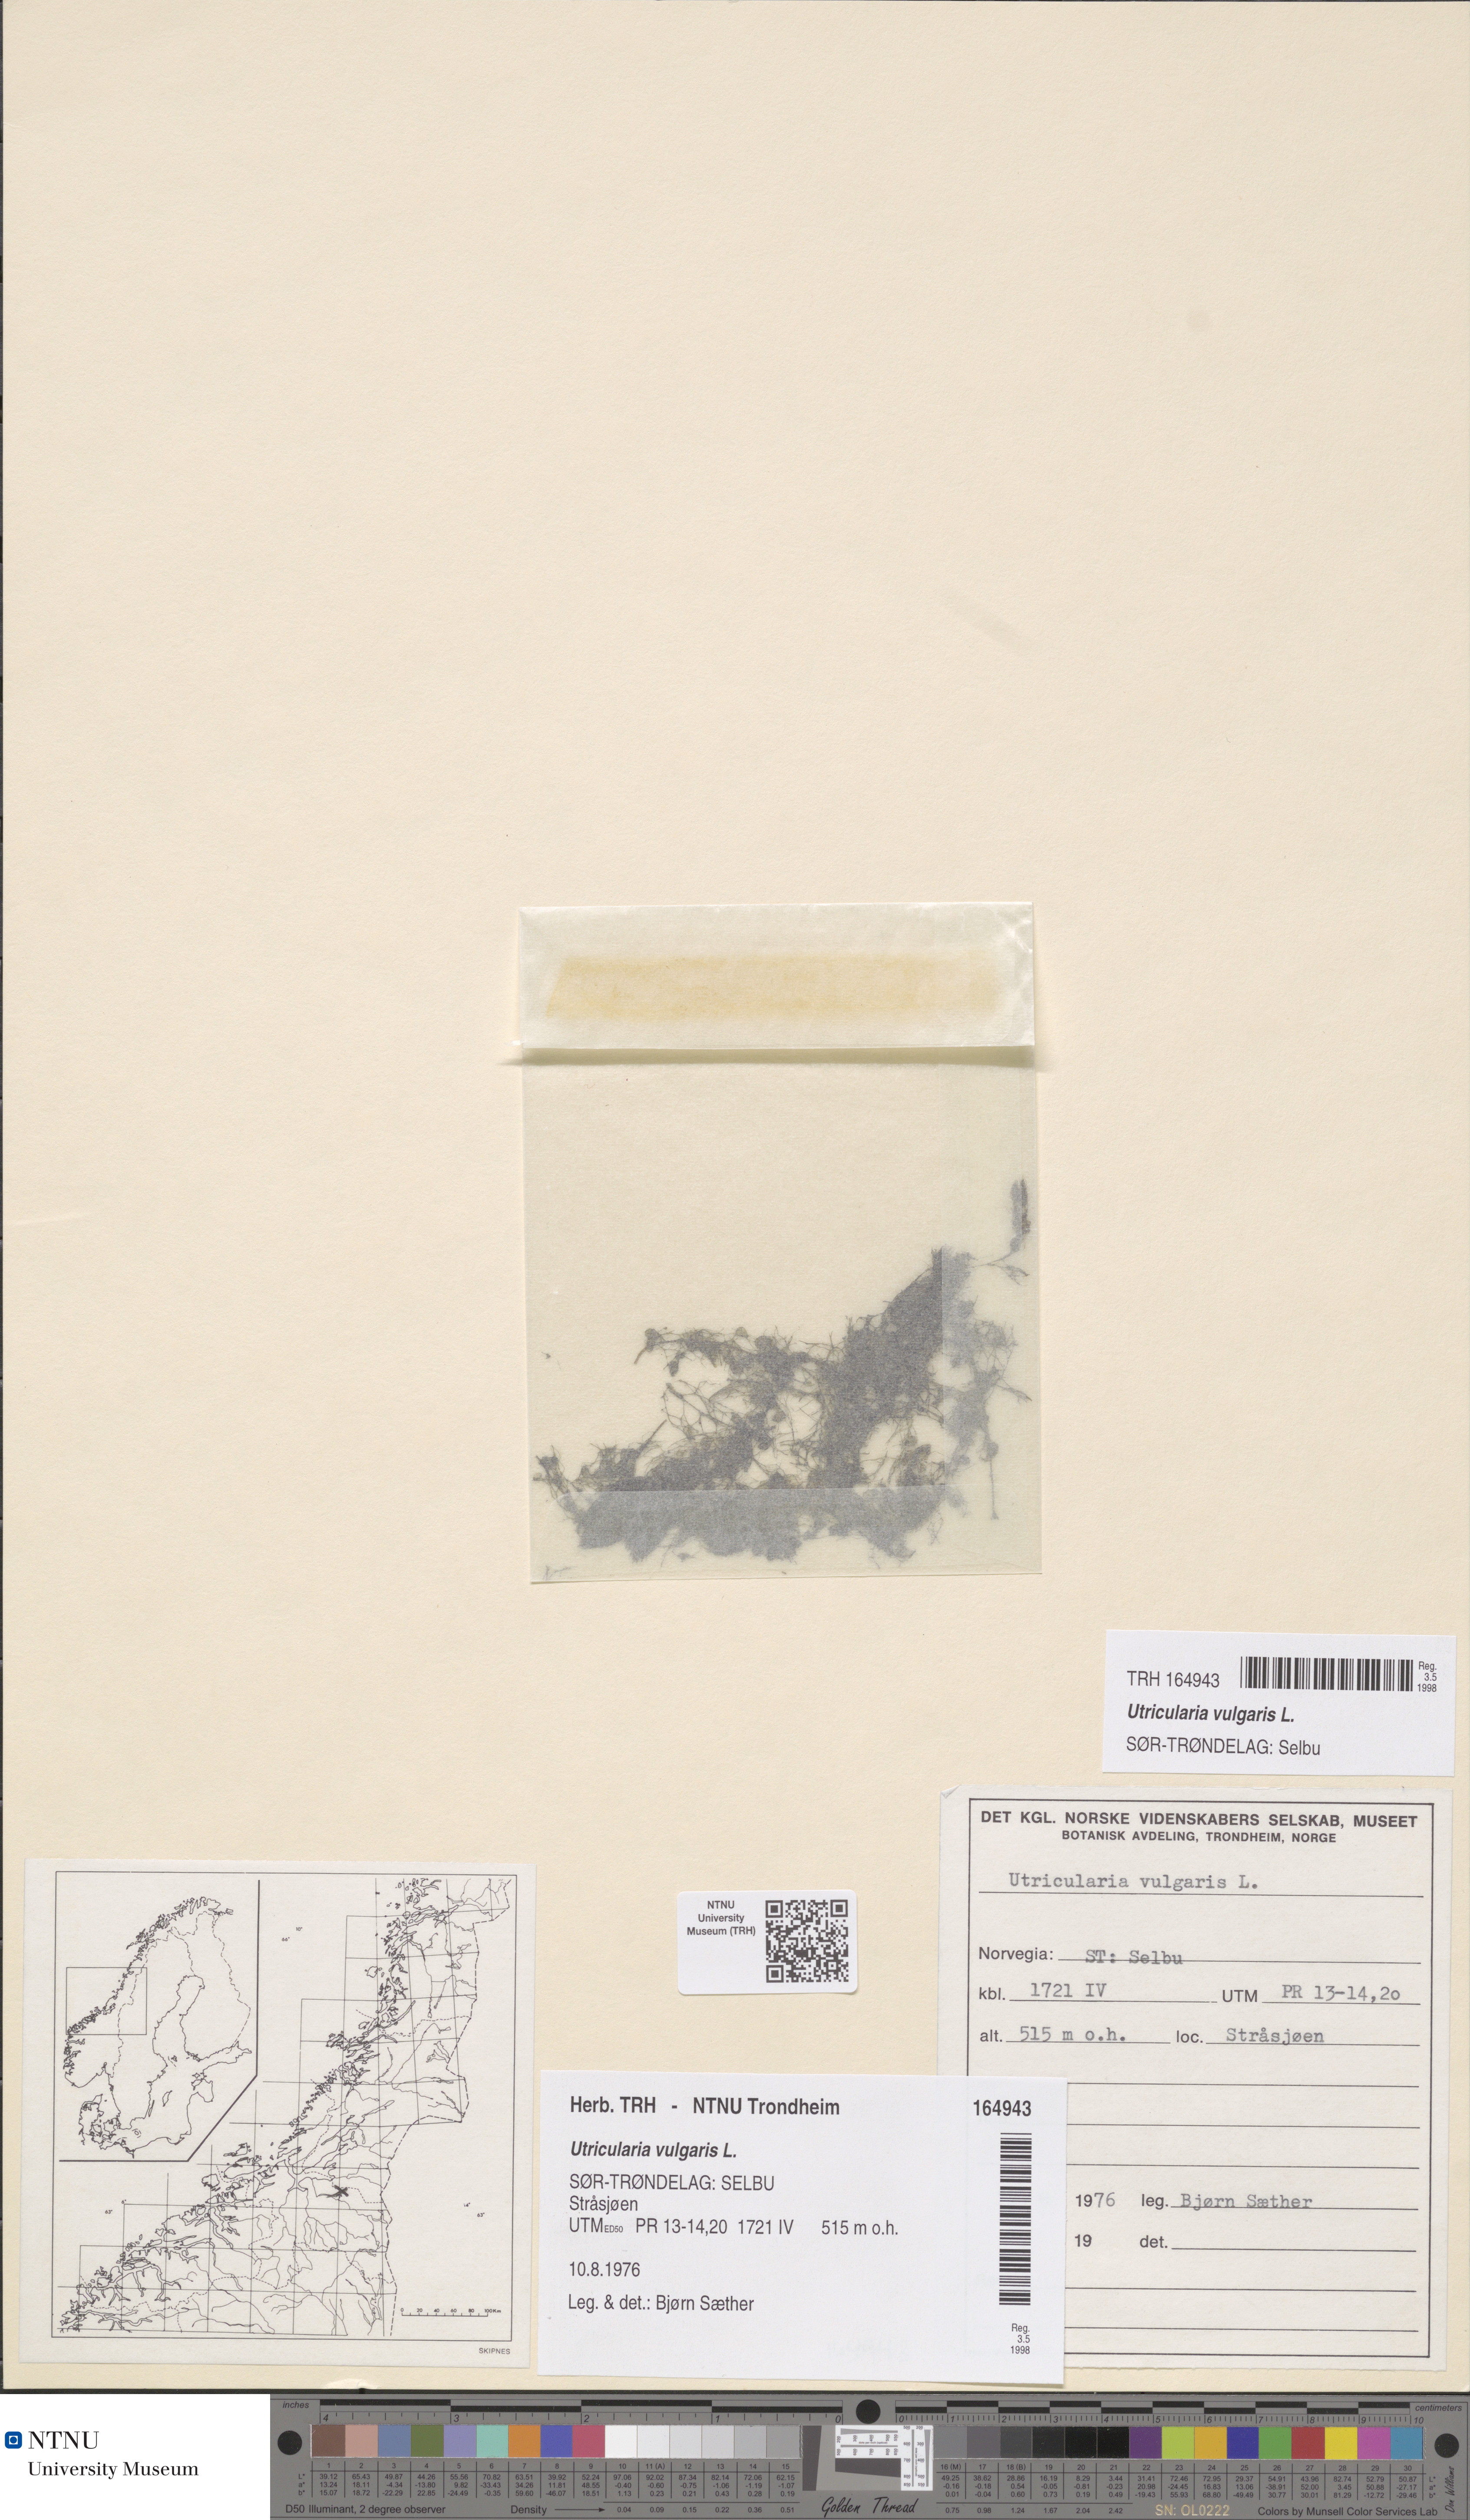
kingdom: Plantae
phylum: Tracheophyta
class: Magnoliopsida
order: Lamiales
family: Lentibulariaceae
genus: Utricularia
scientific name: Utricularia vulgaris
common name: Greater bladderwort
